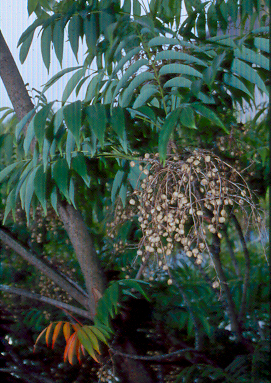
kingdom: Plantae
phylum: Tracheophyta
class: Magnoliopsida
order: Sapindales
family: Anacardiaceae
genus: Toxicodendron
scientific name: Toxicodendron succedaneum
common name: Wax tree
